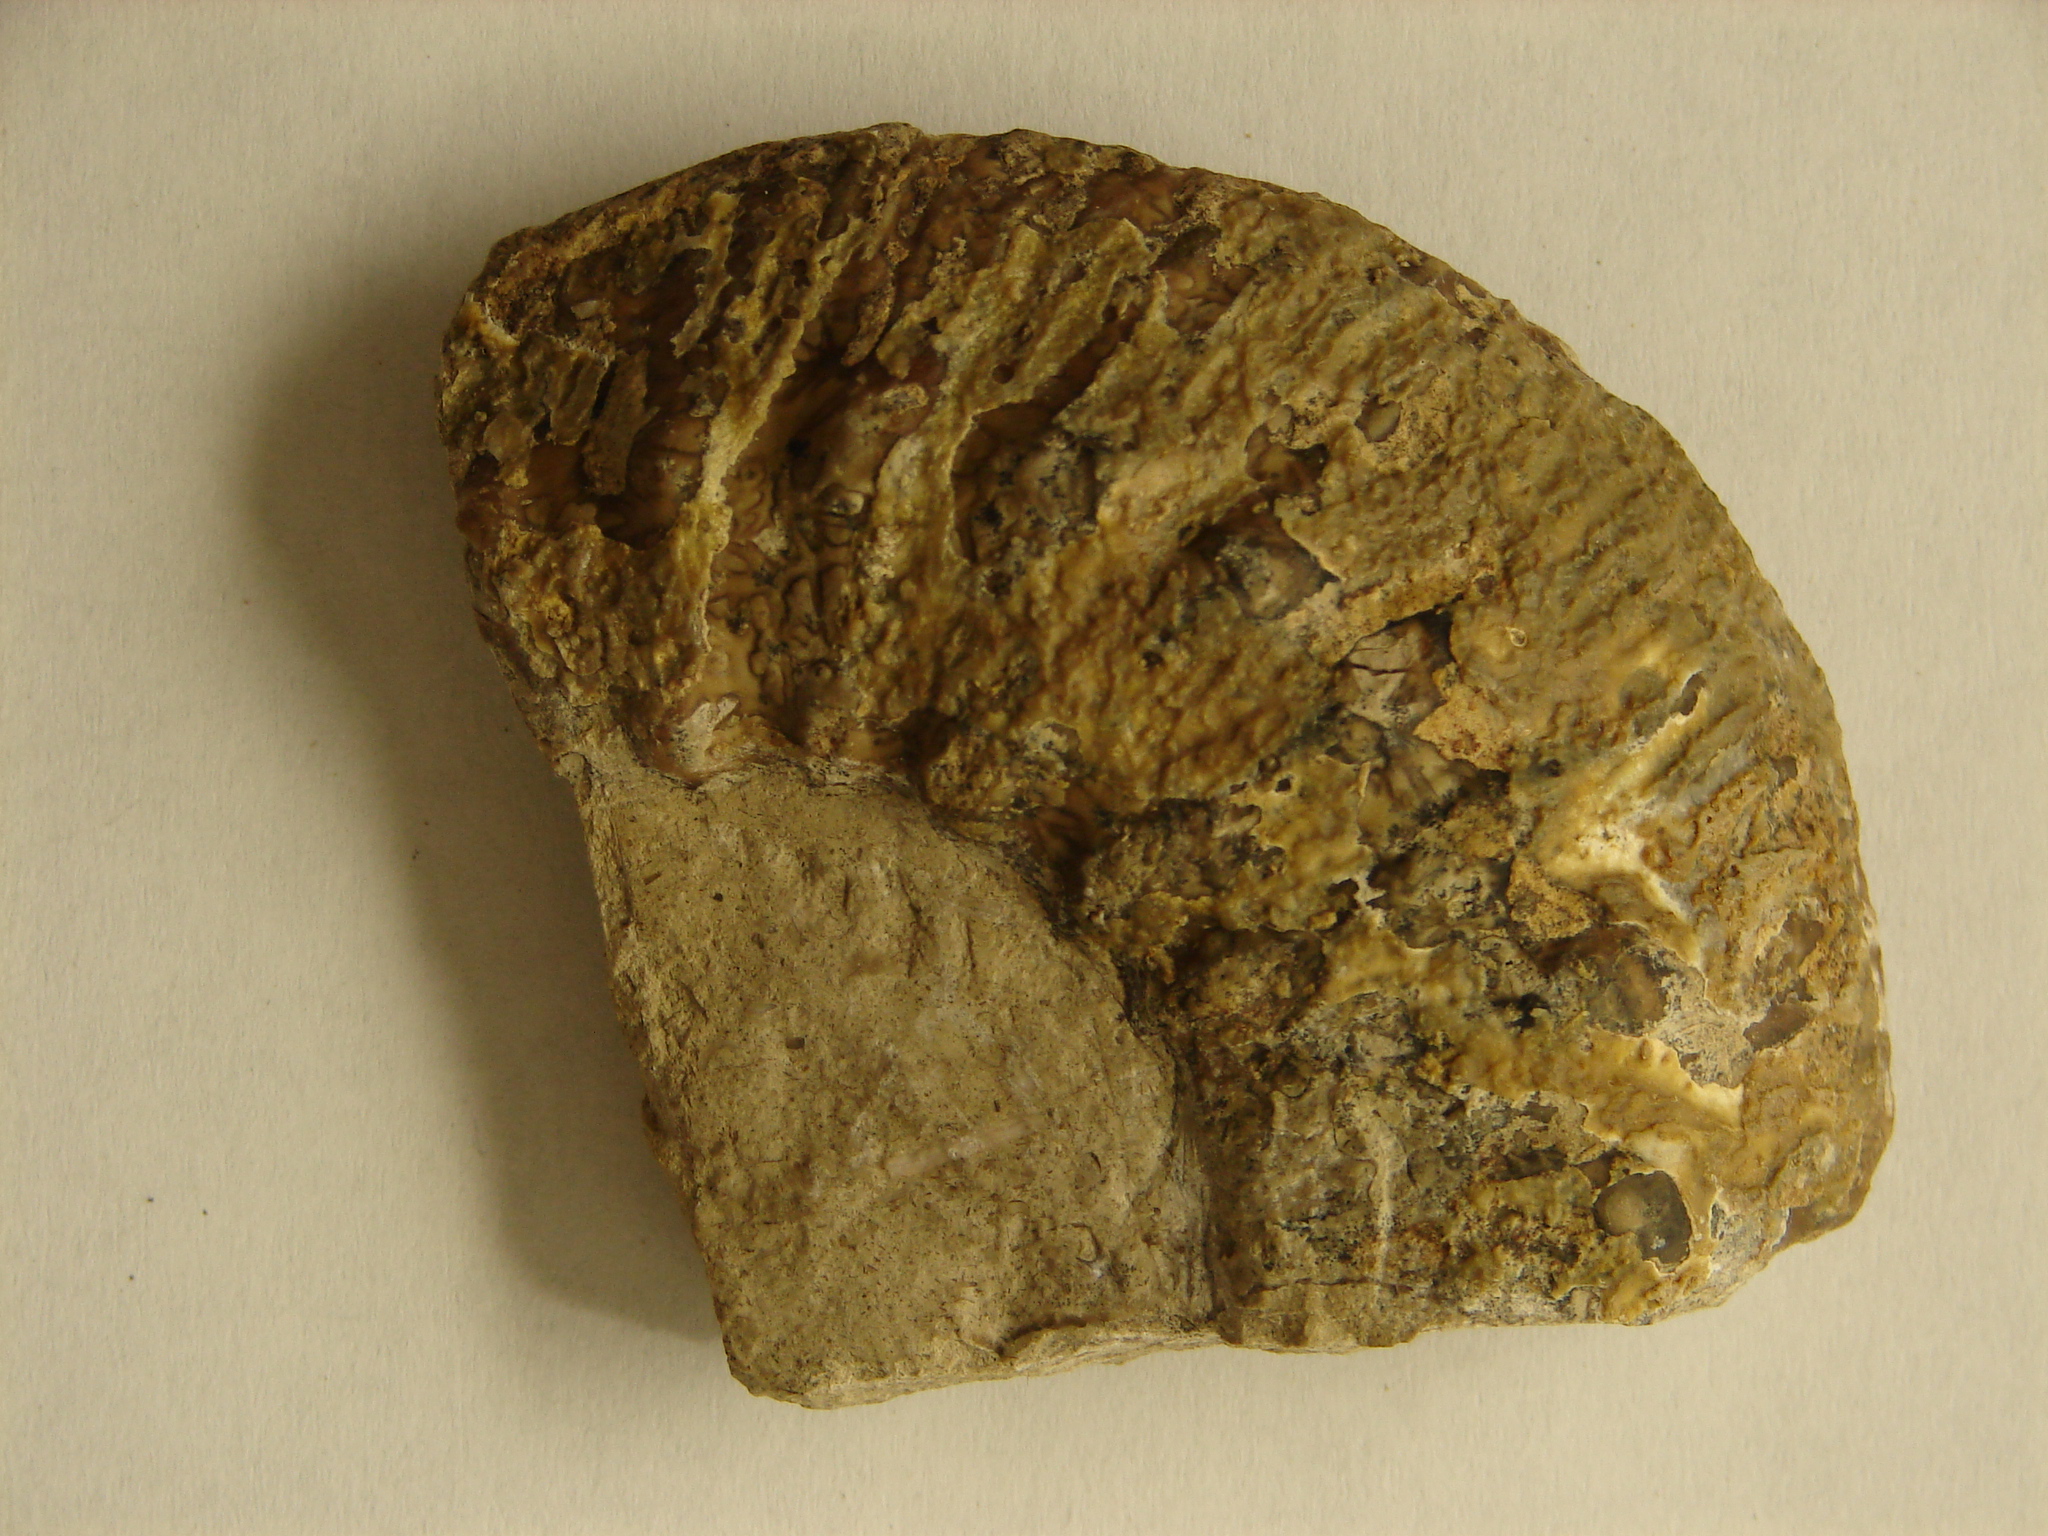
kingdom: Animalia
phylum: Mollusca
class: Cephalopoda
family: Liparoceratidae
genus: Liparoceras
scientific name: Liparoceras
